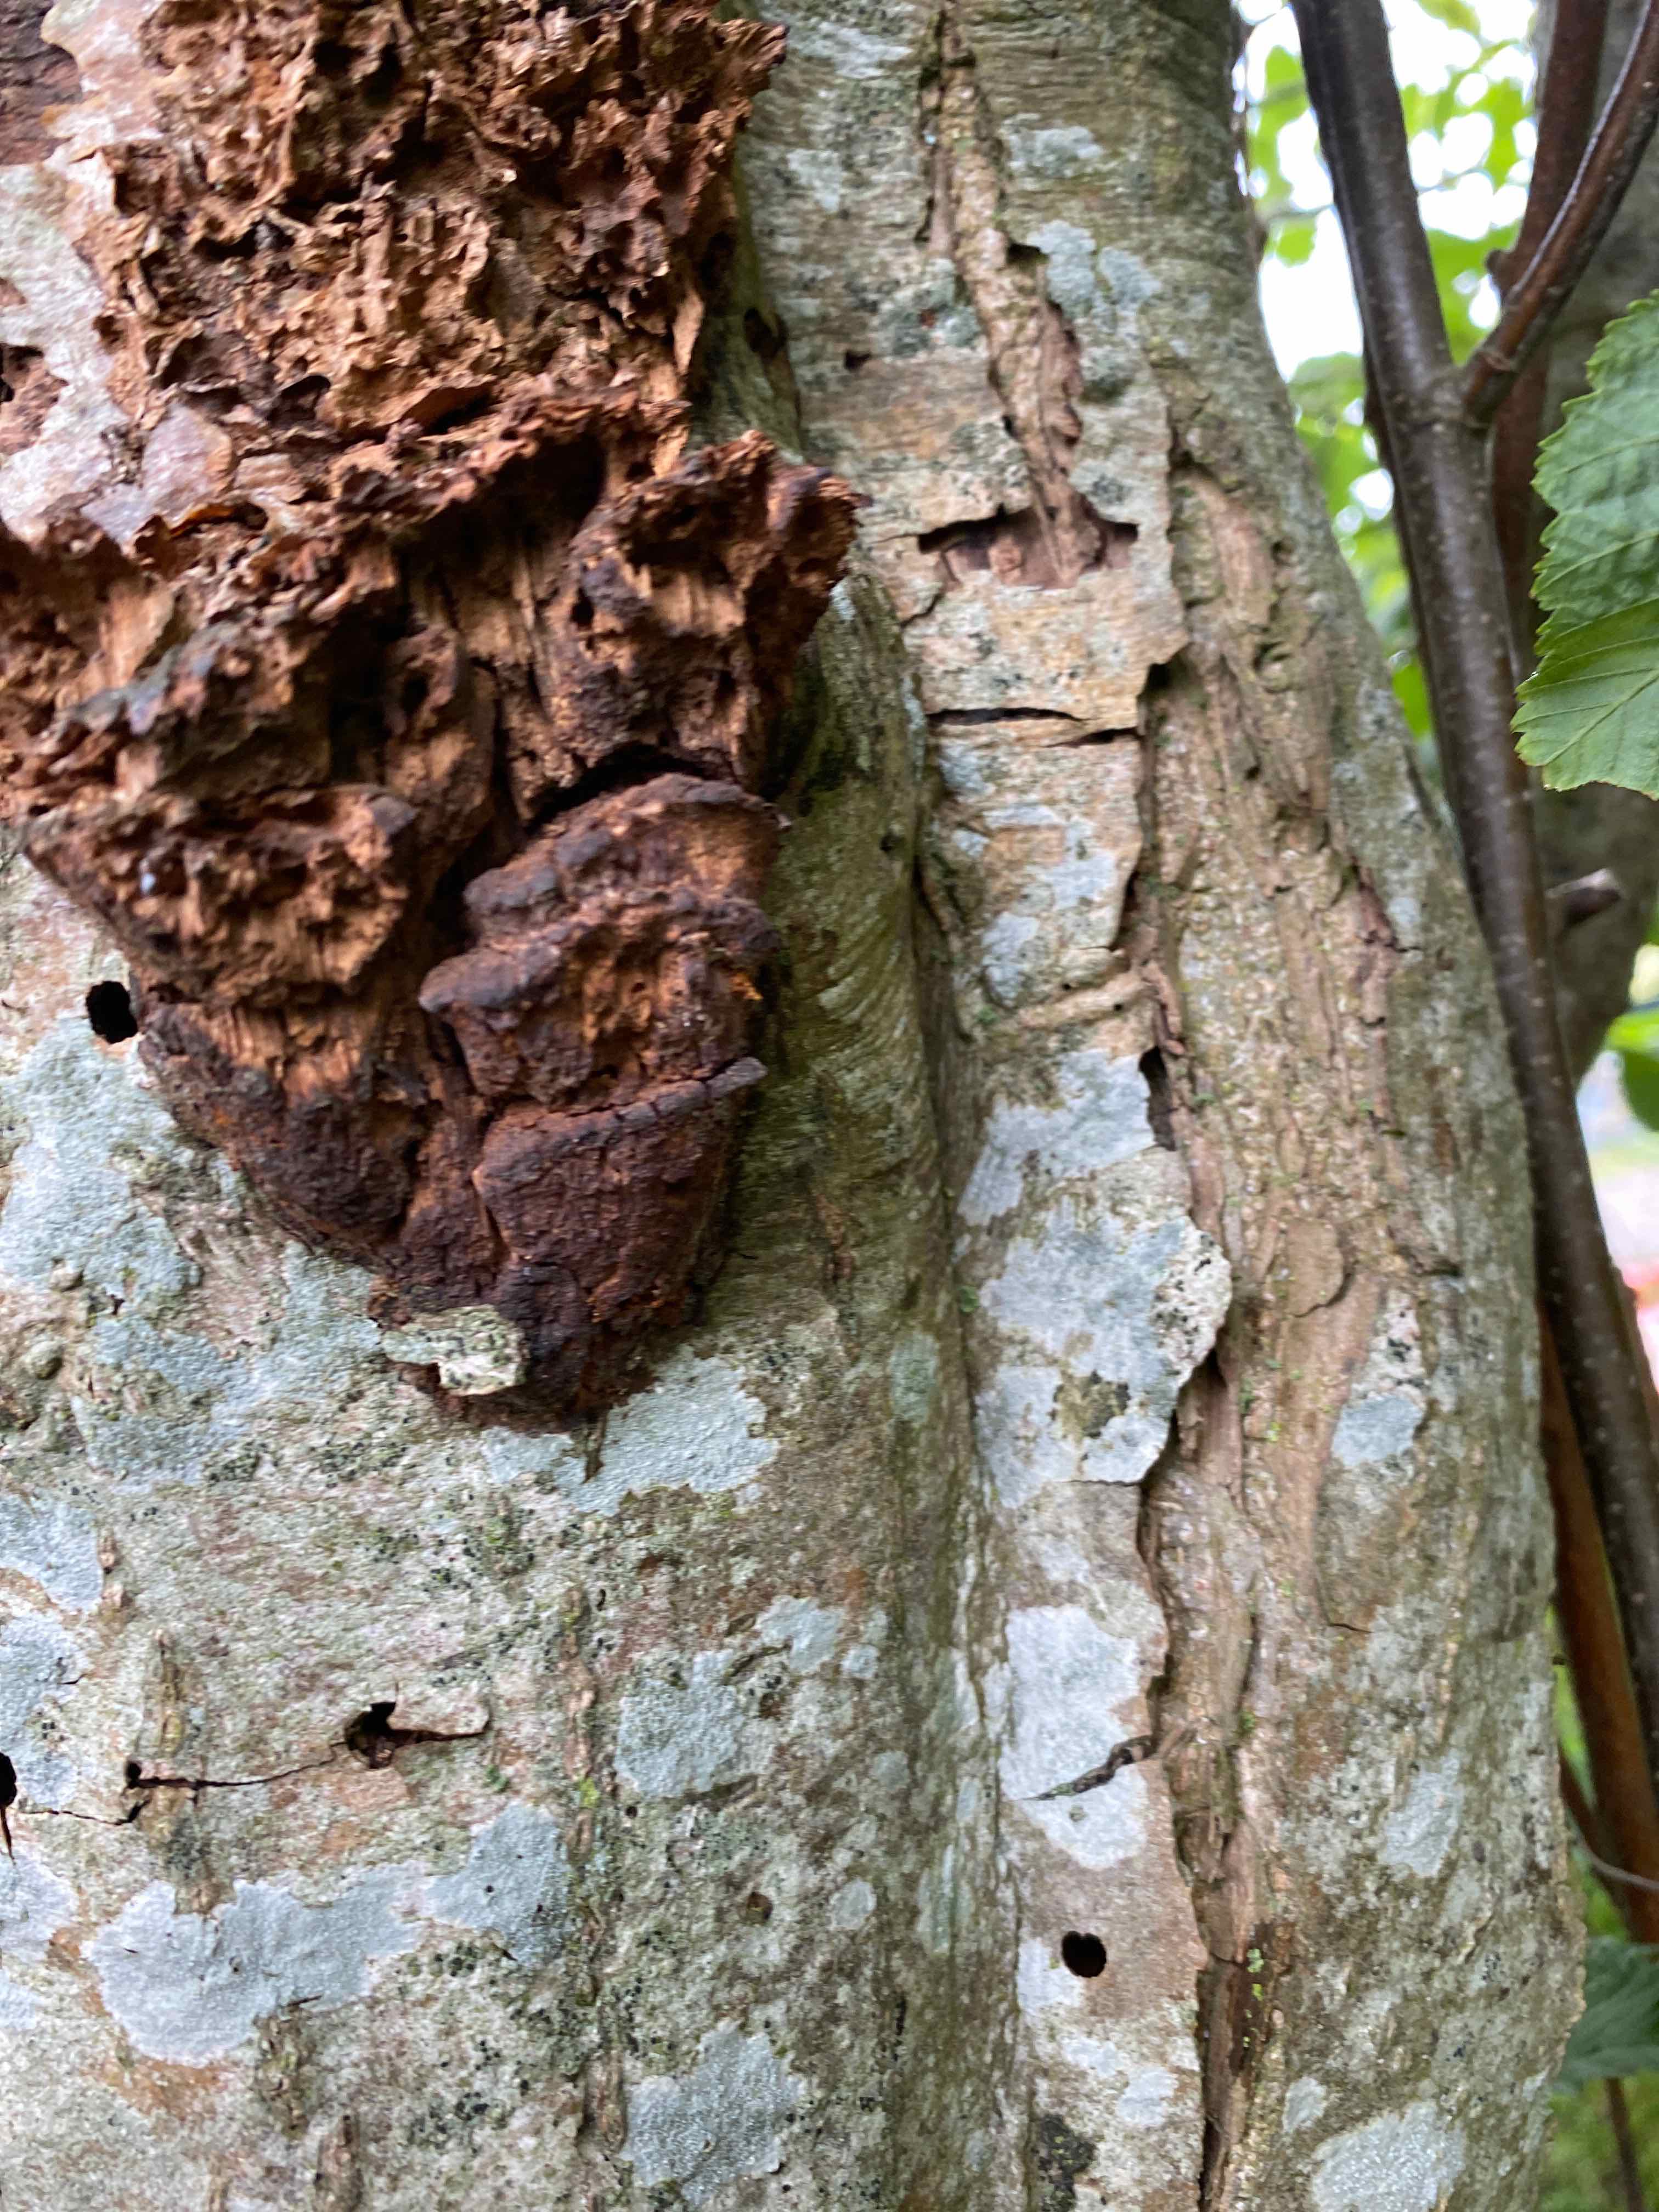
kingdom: Fungi
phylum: Basidiomycota
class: Agaricomycetes
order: Hymenochaetales
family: Hymenochaetaceae
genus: Xanthoporia
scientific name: Xanthoporia radiata
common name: elle-spejlporesvamp
